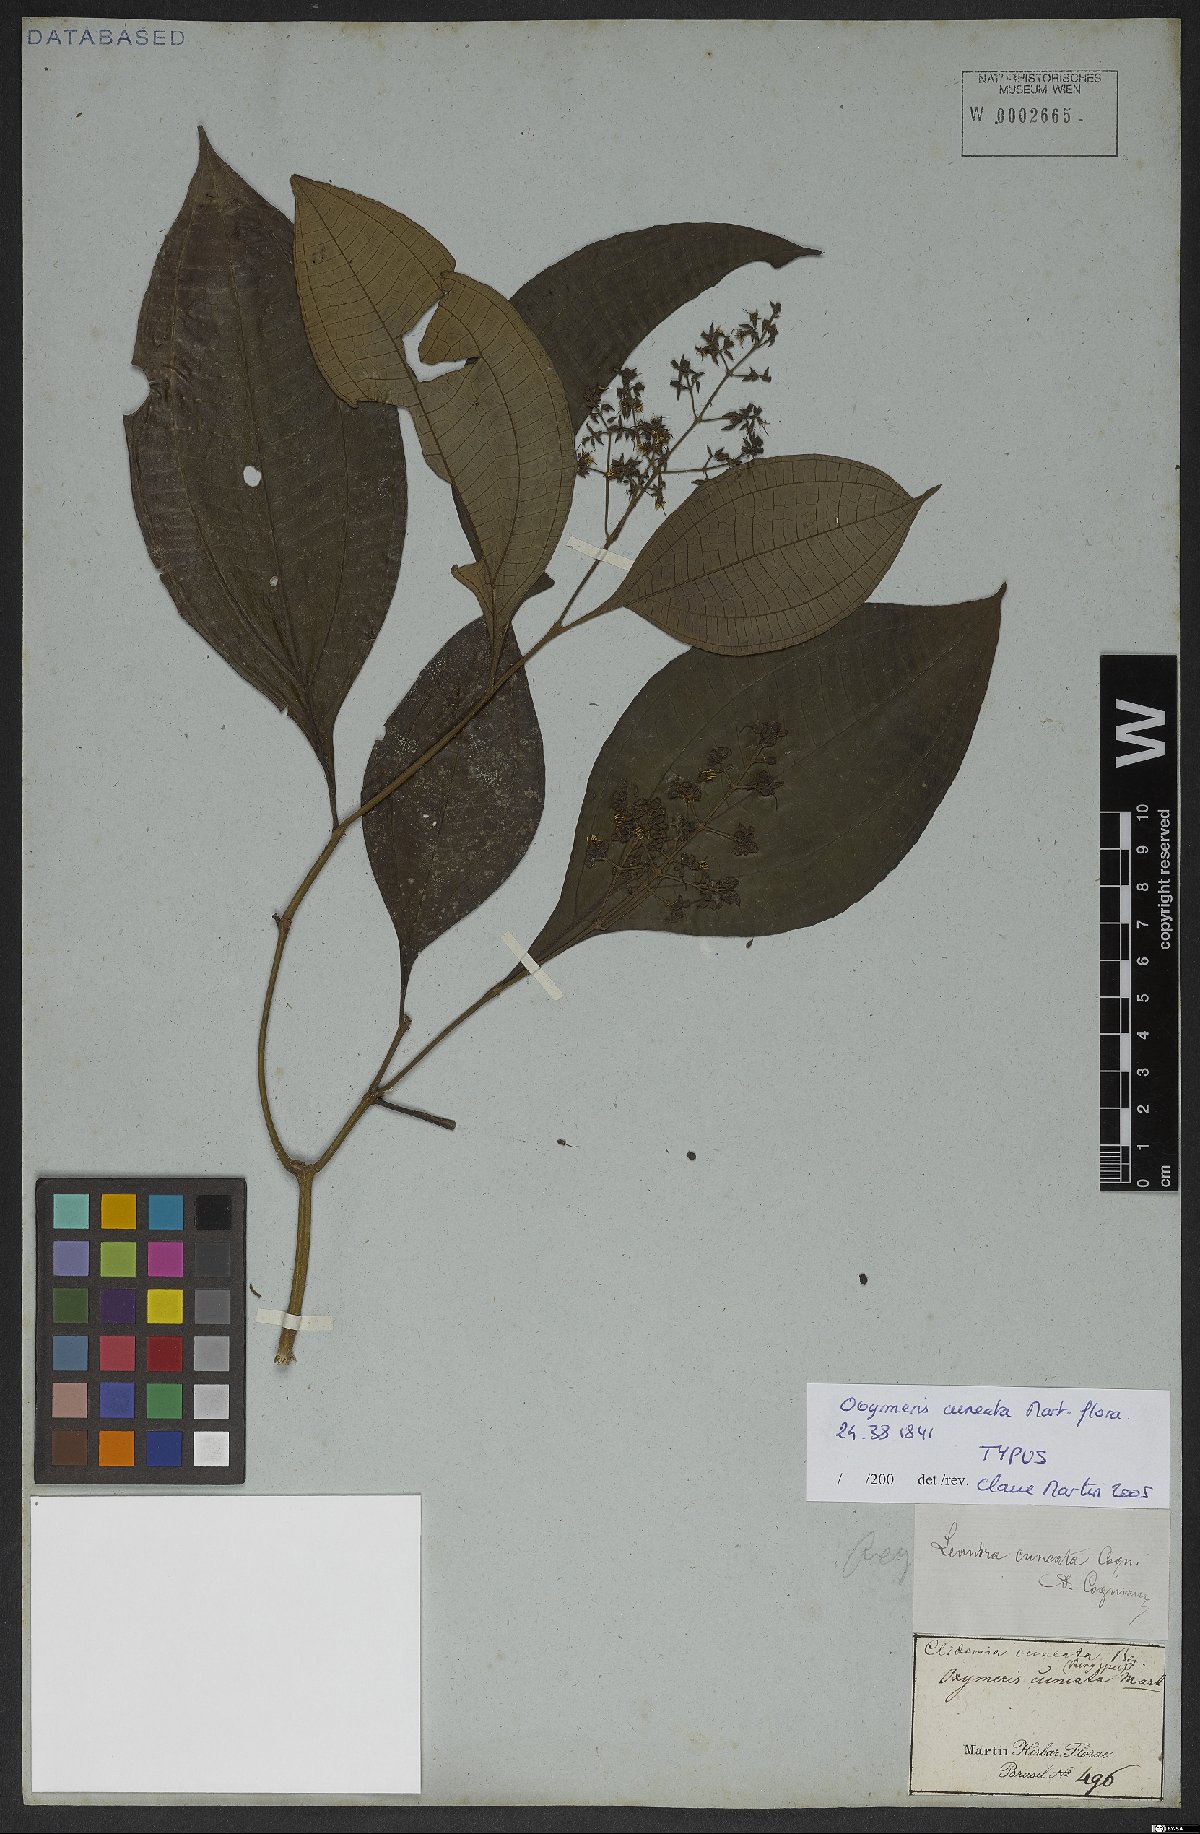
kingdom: Plantae
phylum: Tracheophyta
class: Magnoliopsida
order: Myrtales
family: Melastomataceae
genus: Miconia
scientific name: Miconia cuneatissima
